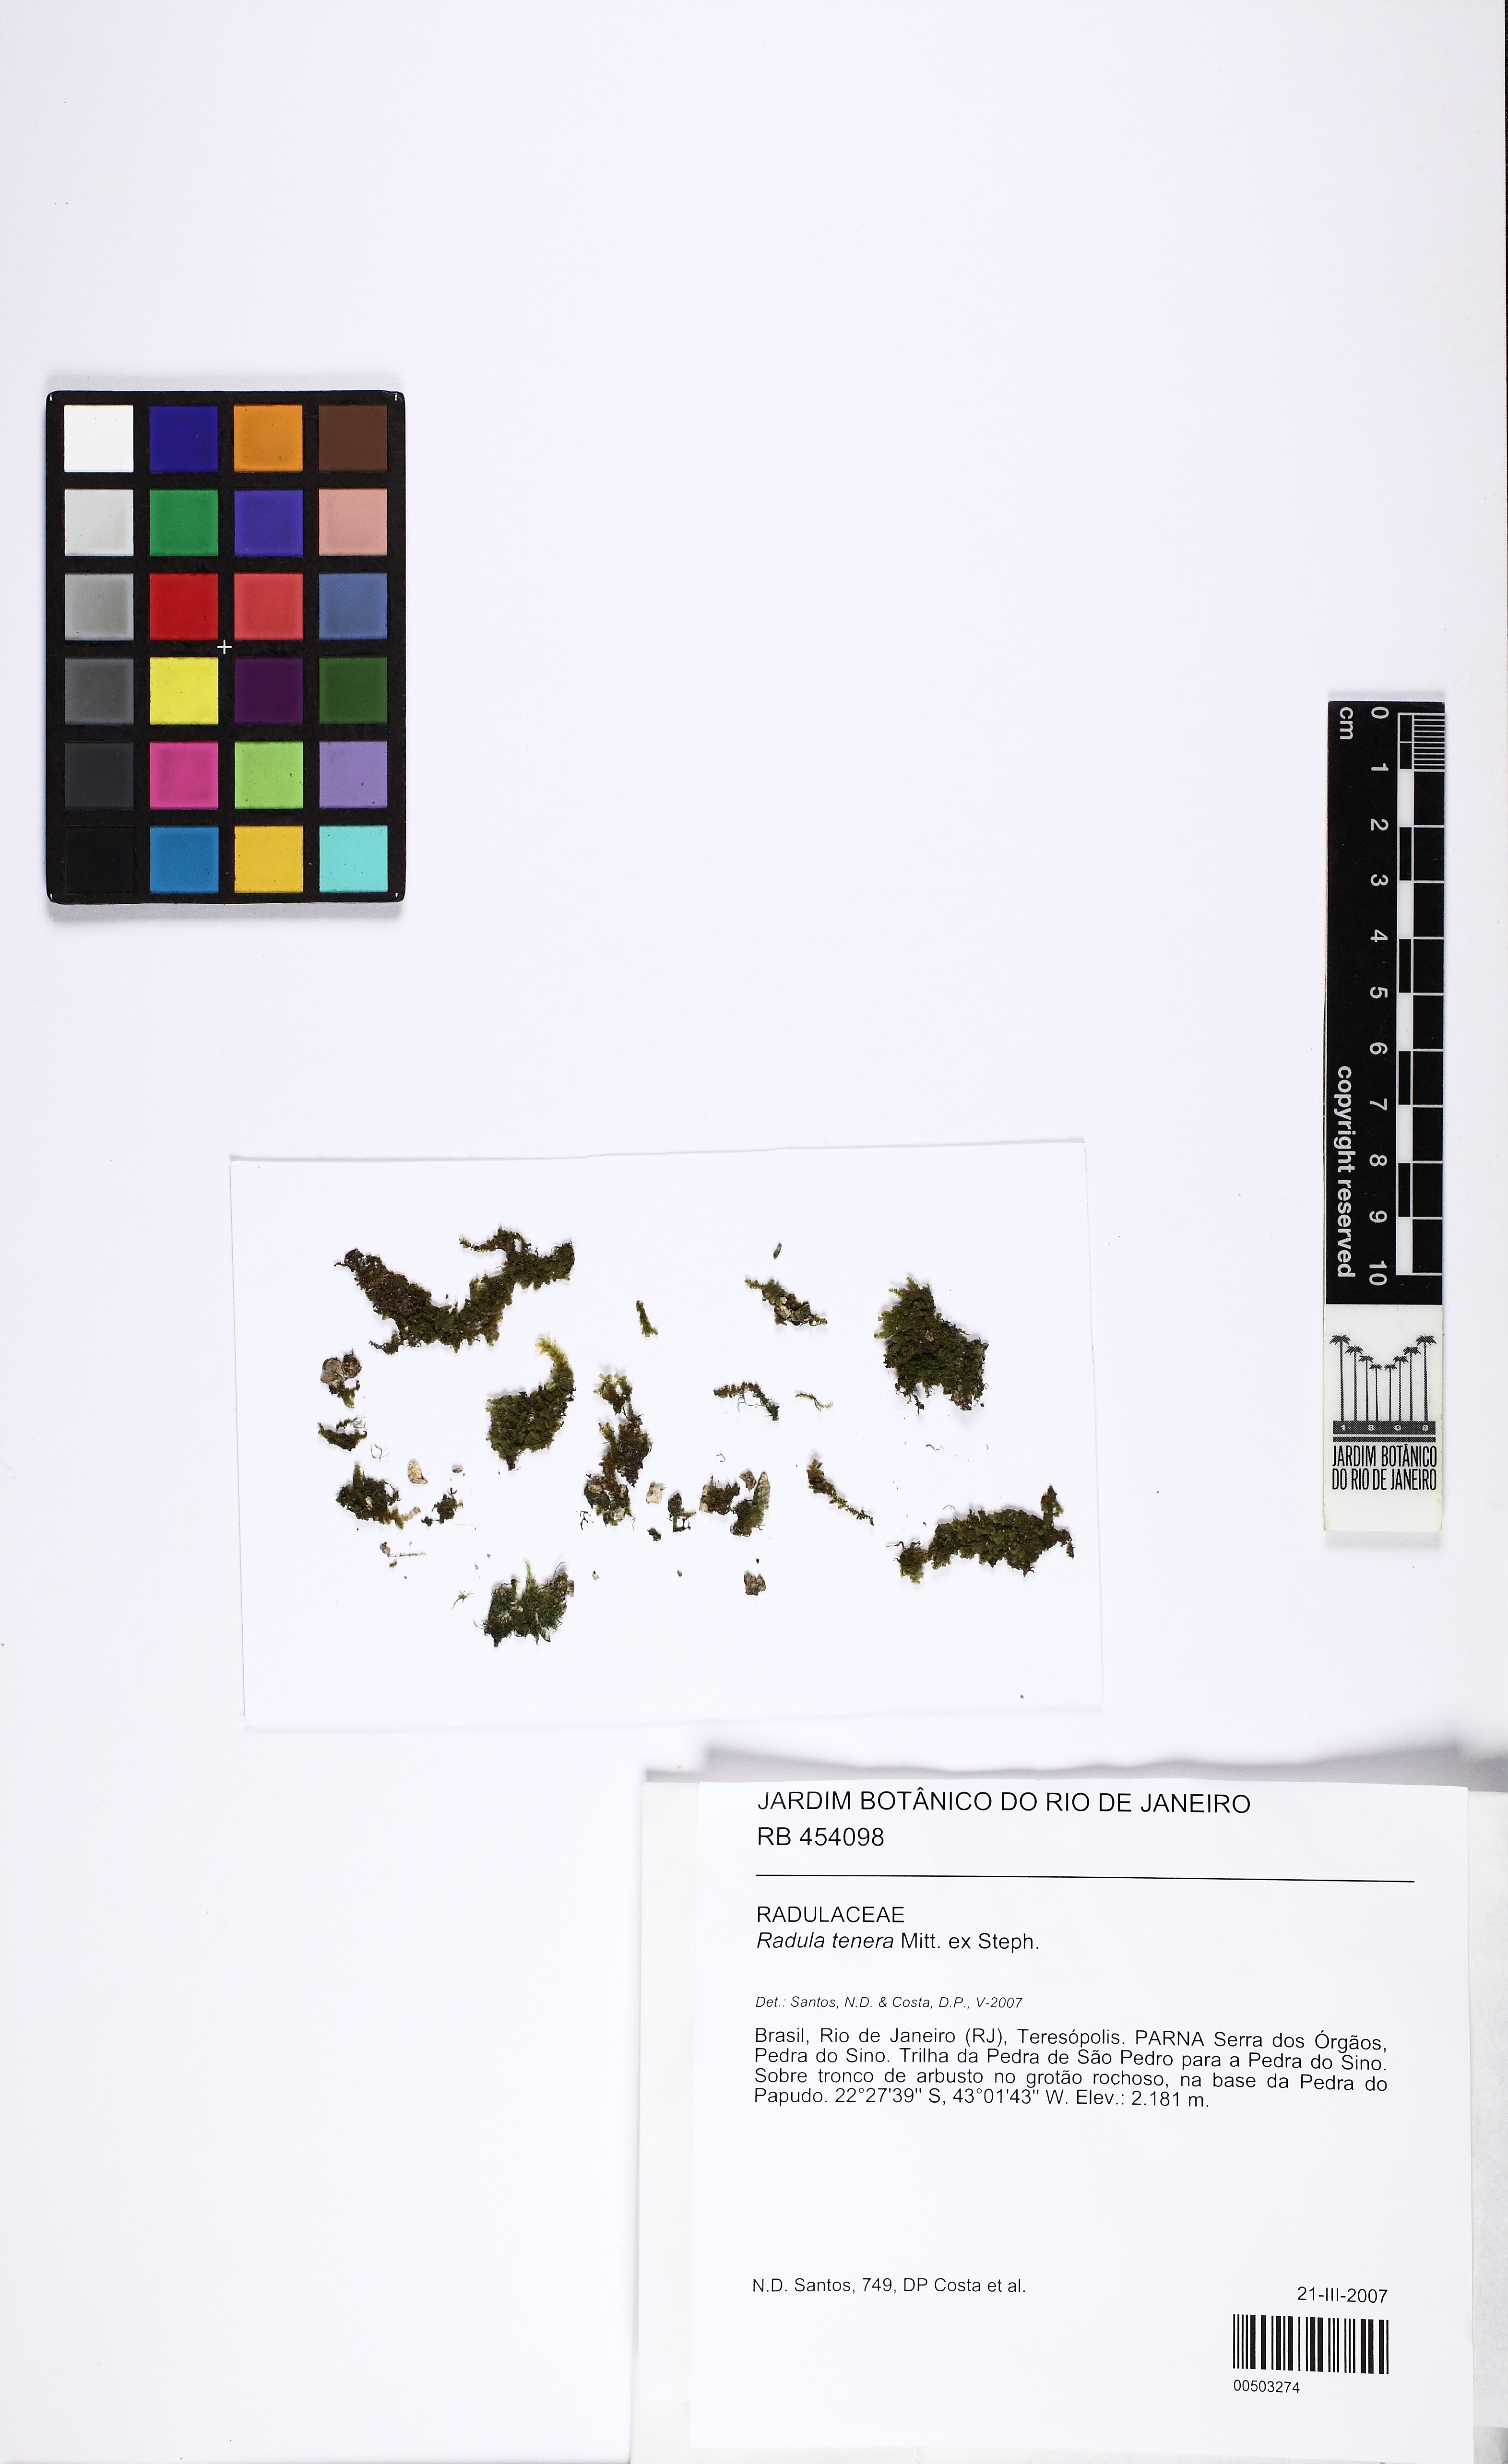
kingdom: Plantae
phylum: Marchantiophyta
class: Jungermanniopsida
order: Porellales
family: Radulaceae
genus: Radula
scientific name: Radula tenera
